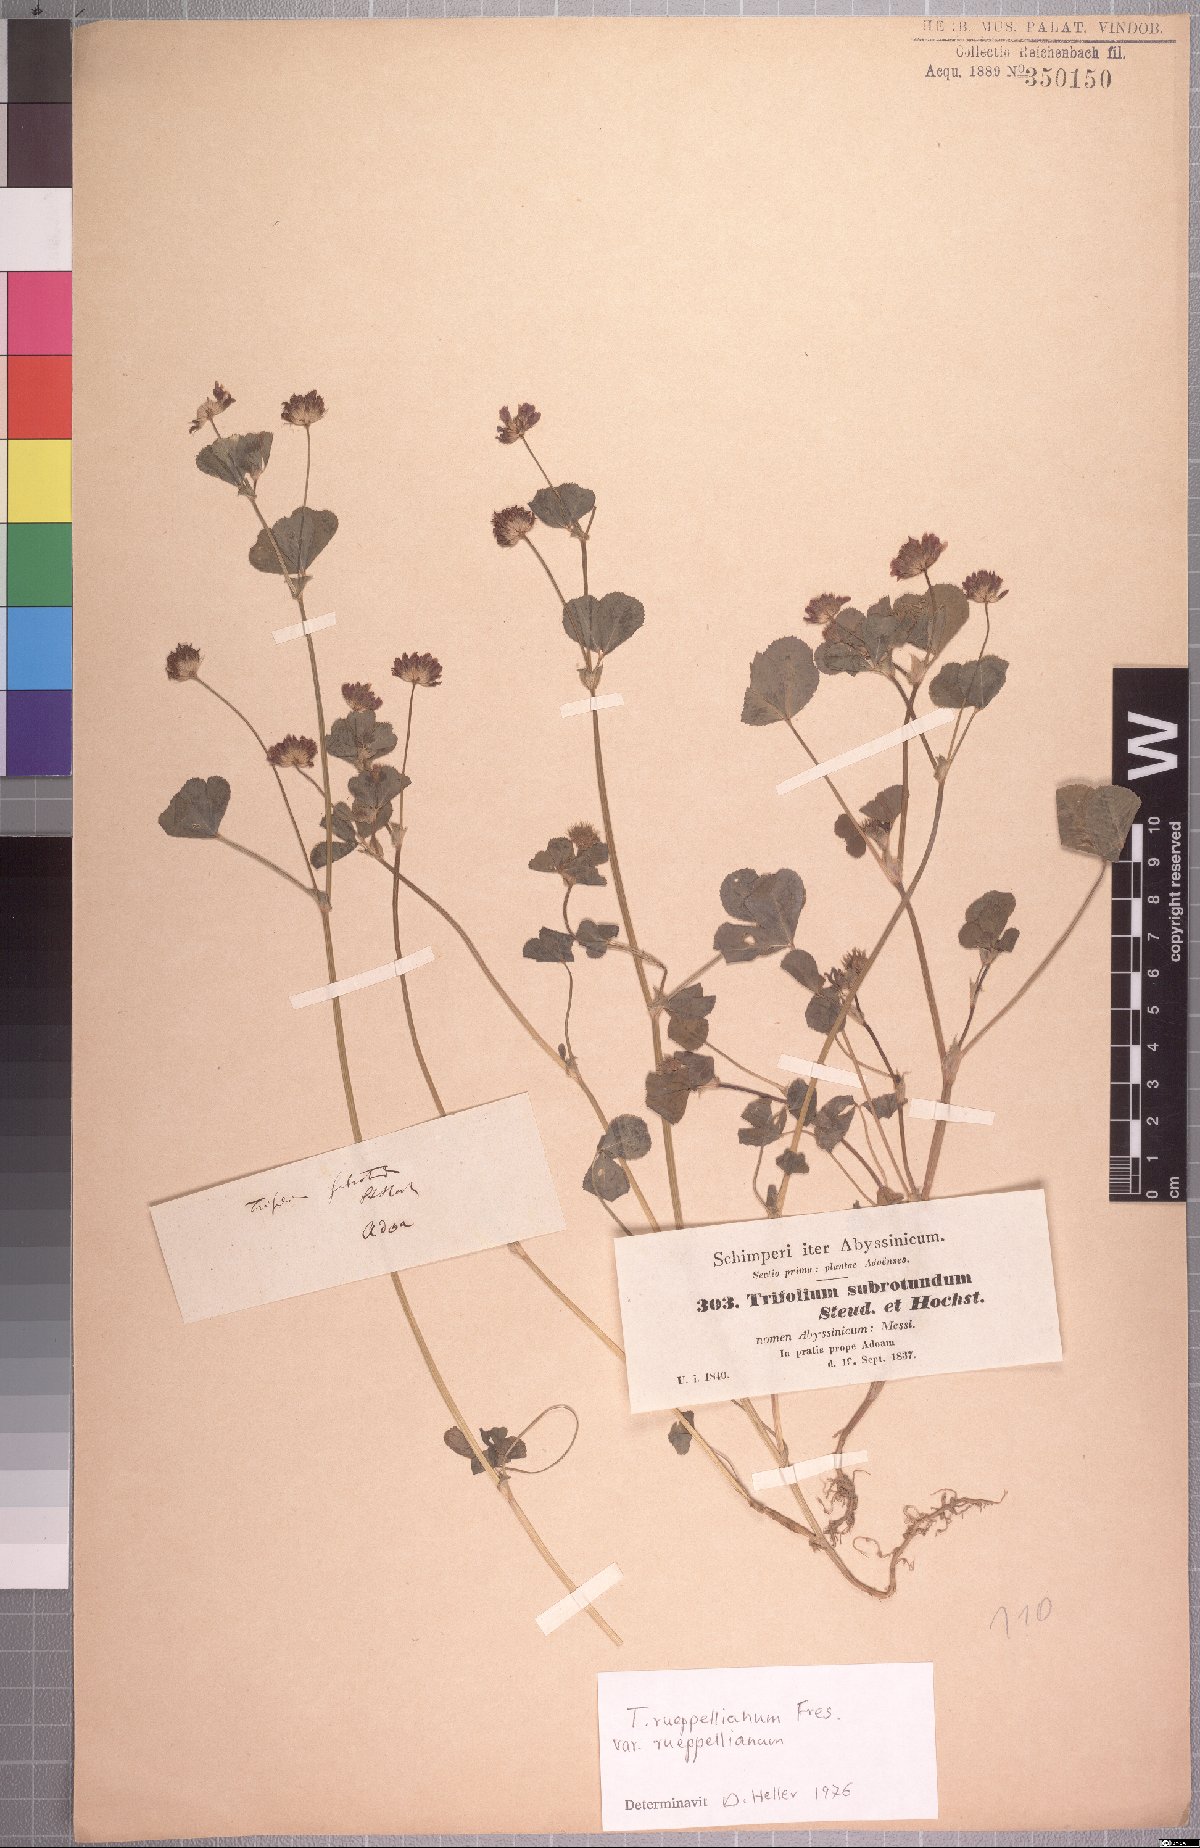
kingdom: Plantae
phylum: Tracheophyta
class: Magnoliopsida
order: Fabales
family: Fabaceae
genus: Trifolium
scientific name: Trifolium rueppellianum
